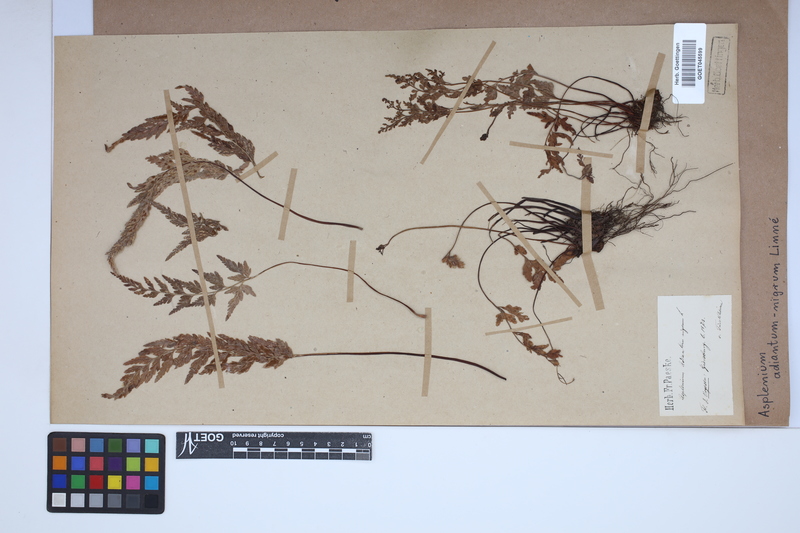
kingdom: Plantae
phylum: Tracheophyta
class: Polypodiopsida
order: Polypodiales
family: Aspleniaceae
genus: Asplenium
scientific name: Asplenium adiantum-nigrum
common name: Black spleenwort
